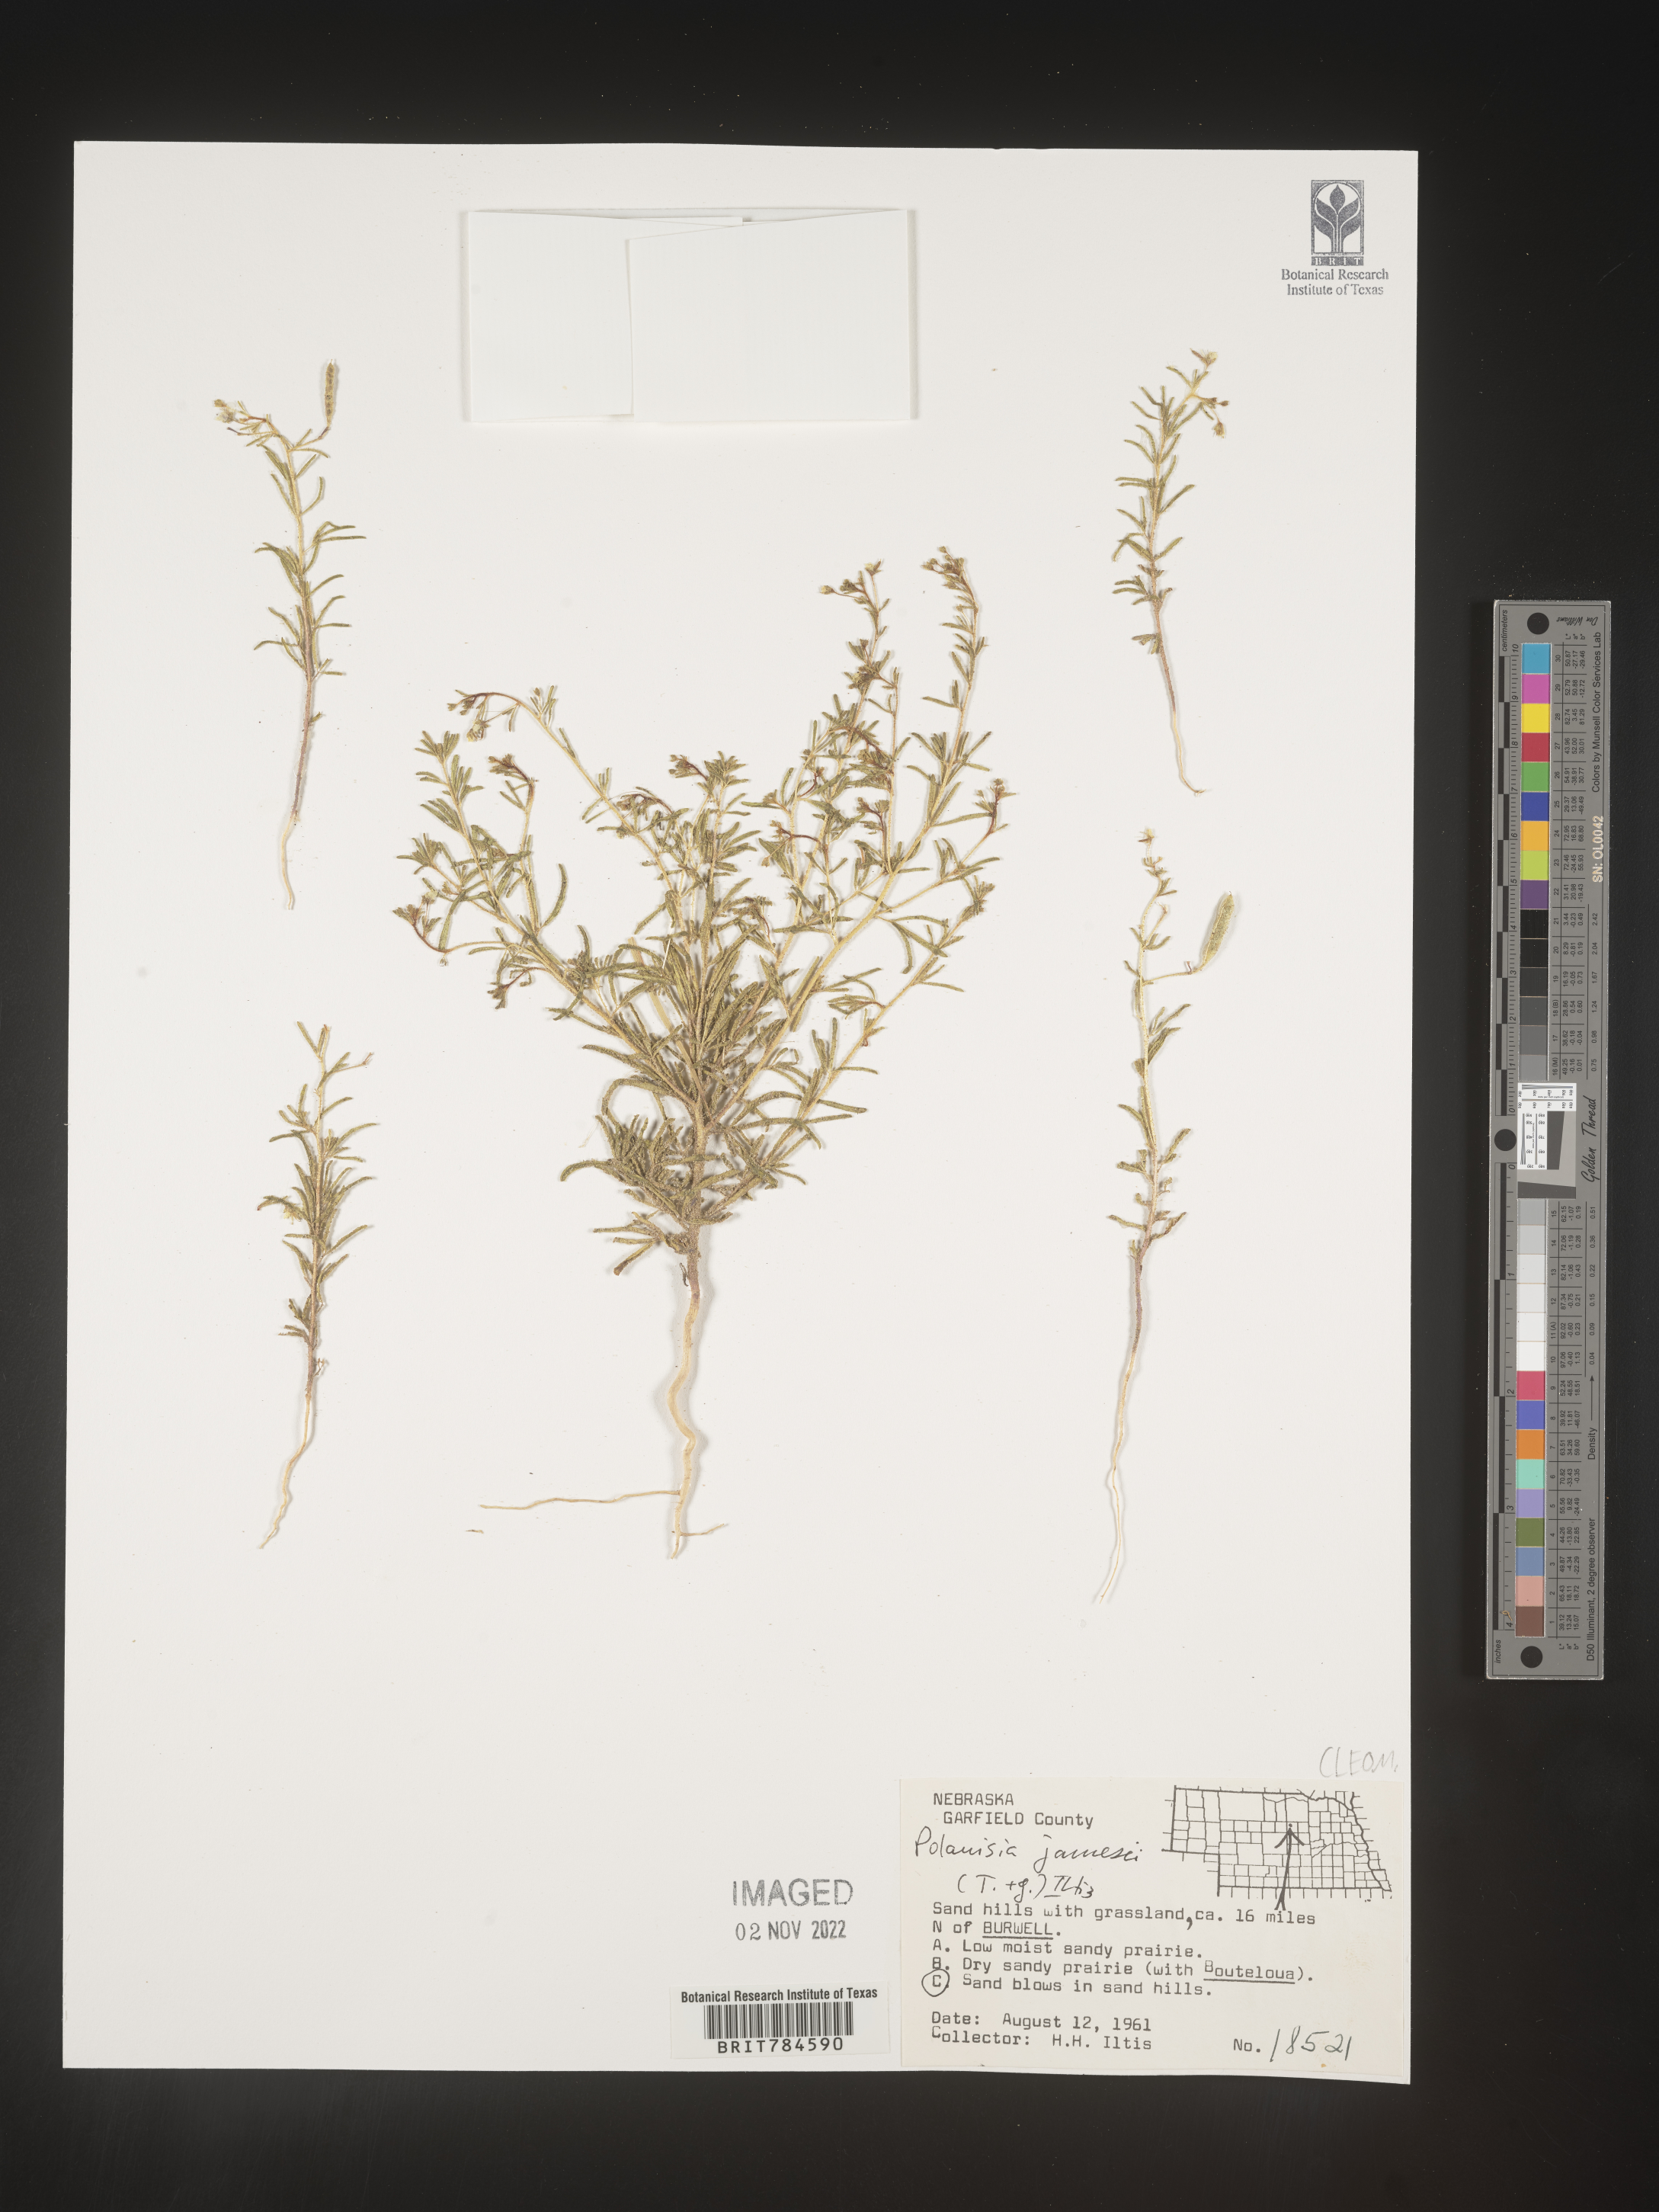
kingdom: Plantae
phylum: Tracheophyta
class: Magnoliopsida
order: Brassicales
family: Cleomaceae
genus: Polanisia
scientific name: Polanisia
